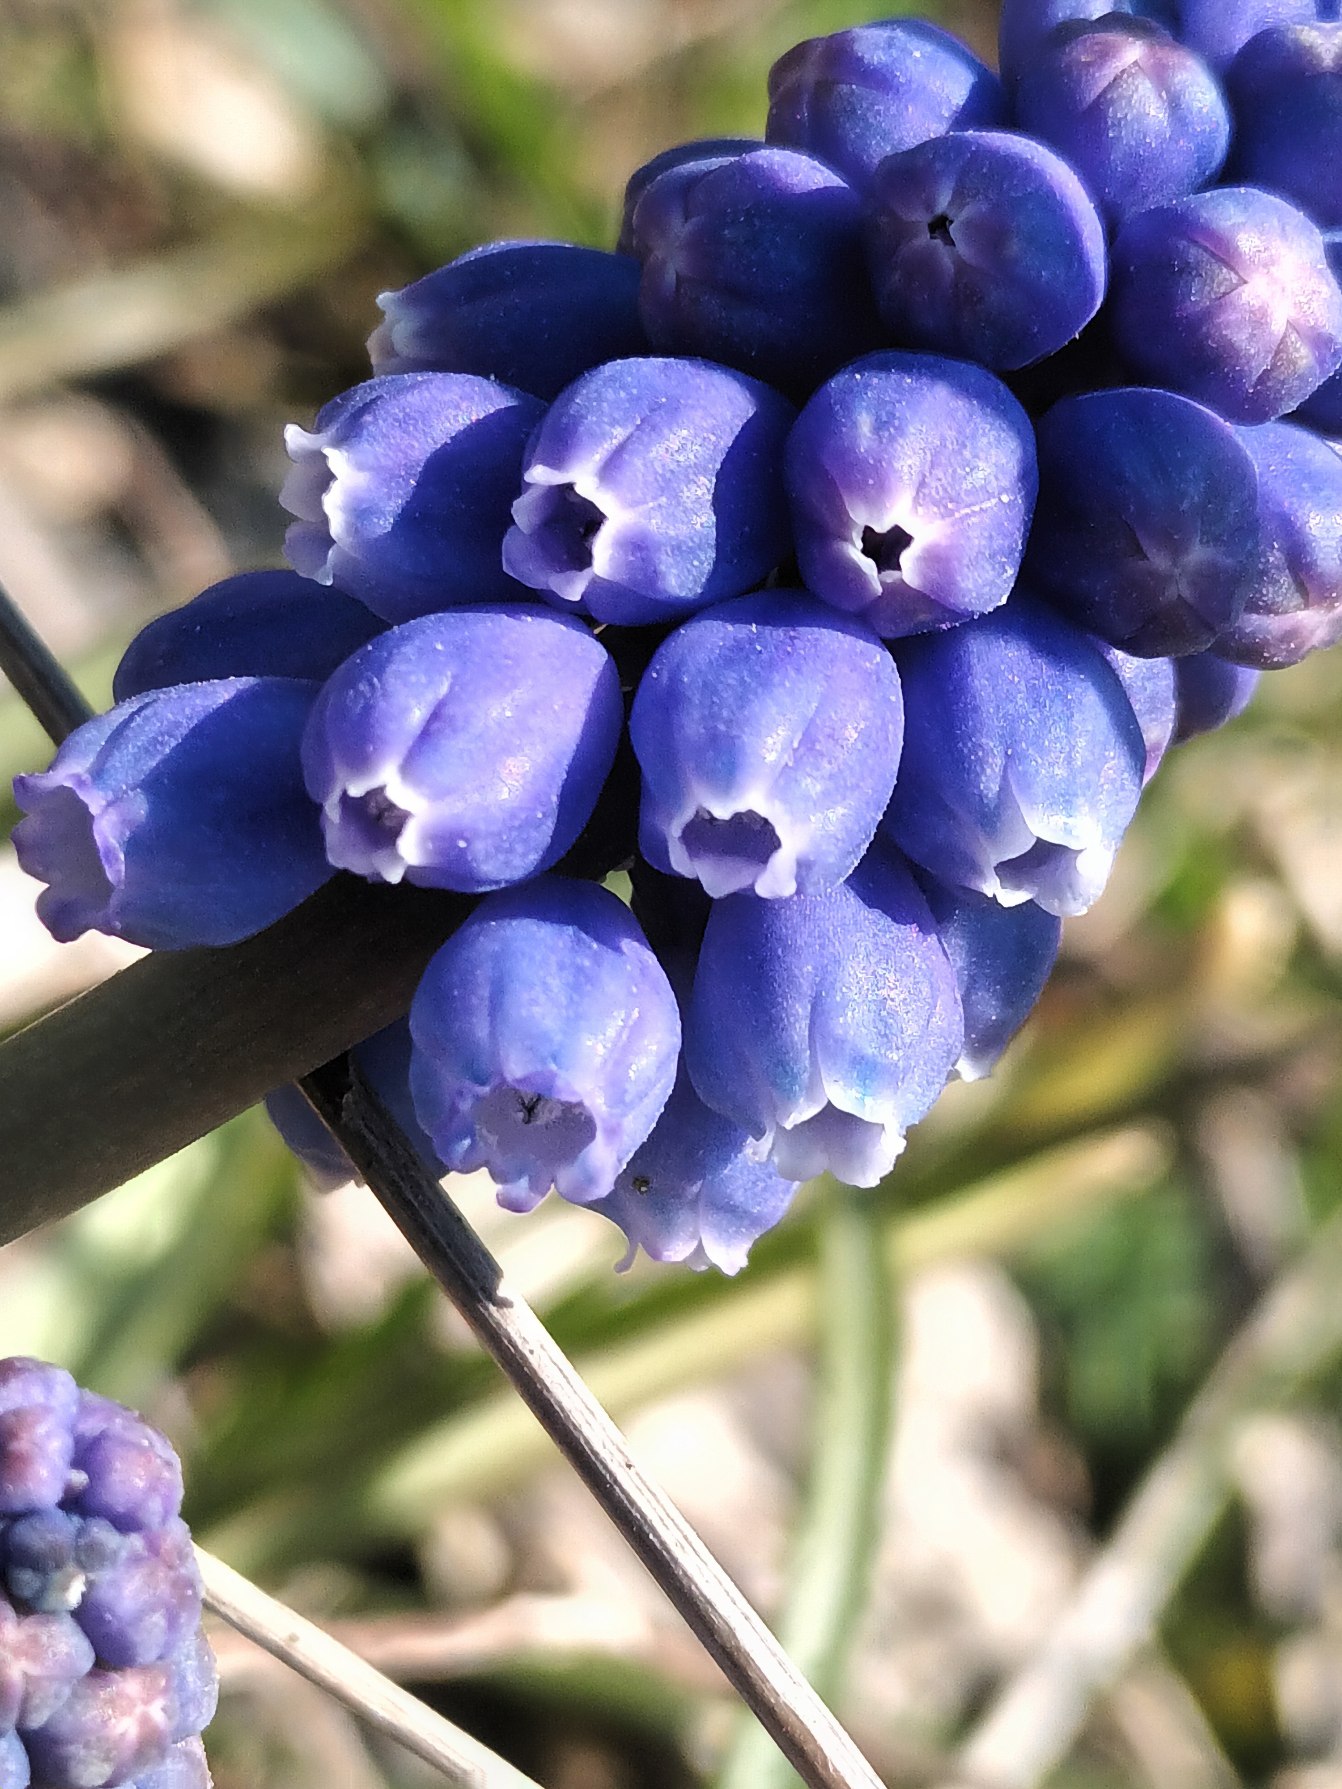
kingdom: Plantae
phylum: Tracheophyta
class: Liliopsida
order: Asparagales
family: Asparagaceae
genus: Muscari
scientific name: Muscari armeniacum
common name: Armensk perlehyacint
